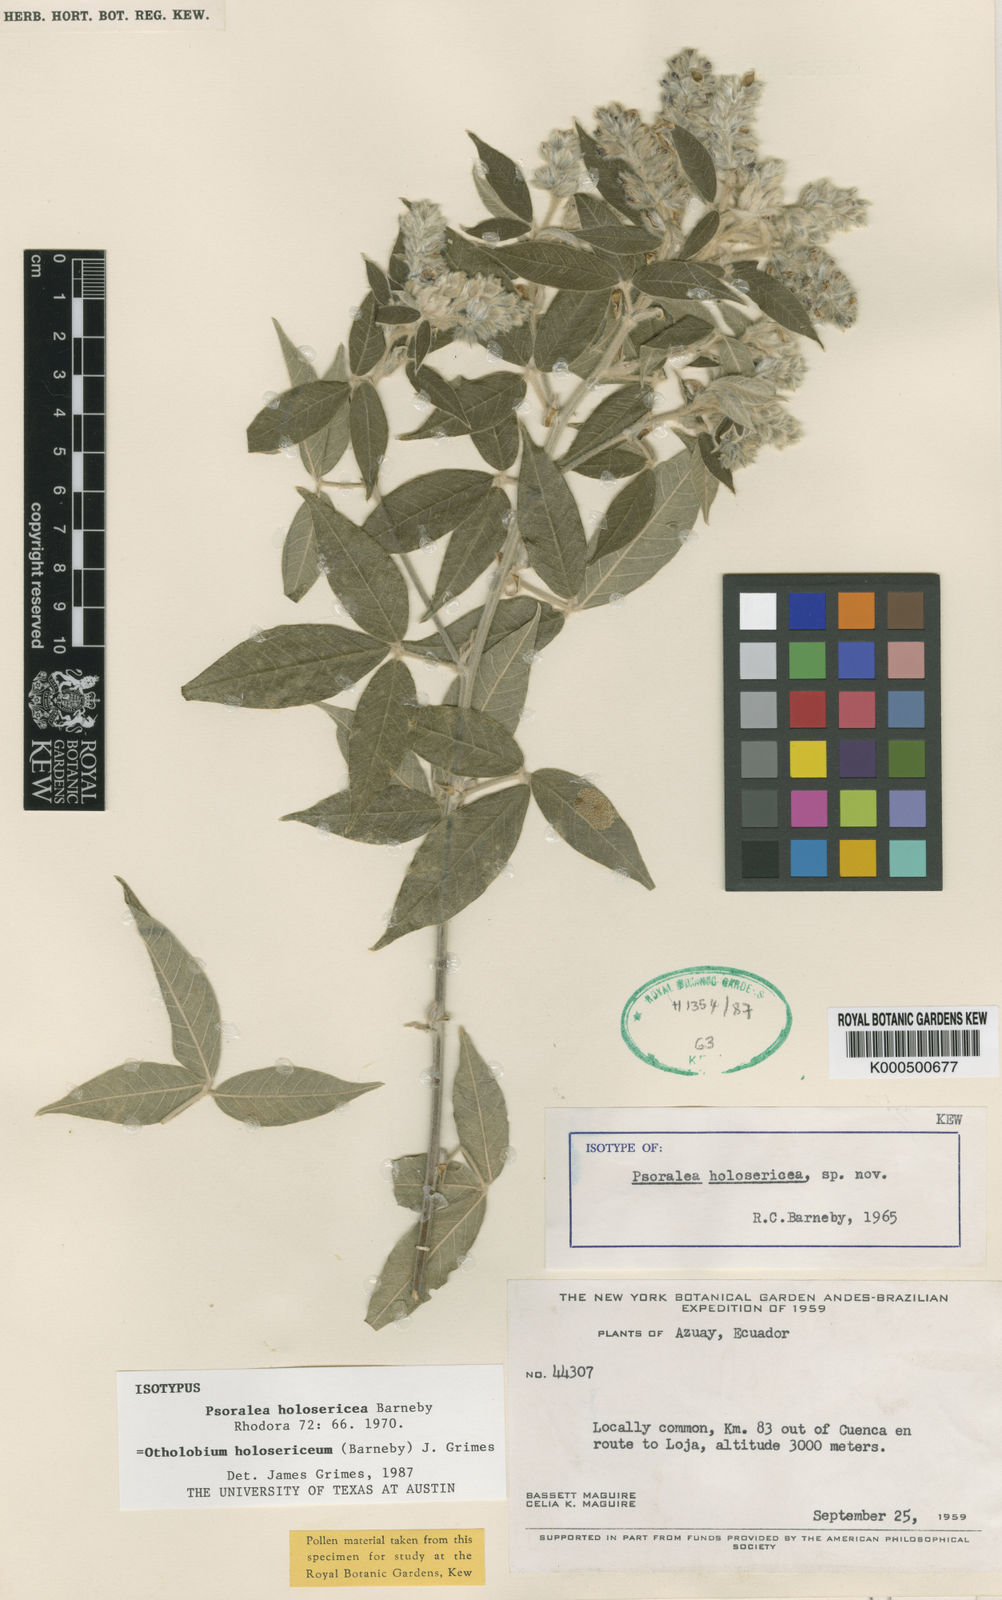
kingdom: Plantae
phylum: Tracheophyta
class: Magnoliopsida
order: Fabales
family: Fabaceae
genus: Psoralea
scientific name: Psoralea Otholobium holosericeum
